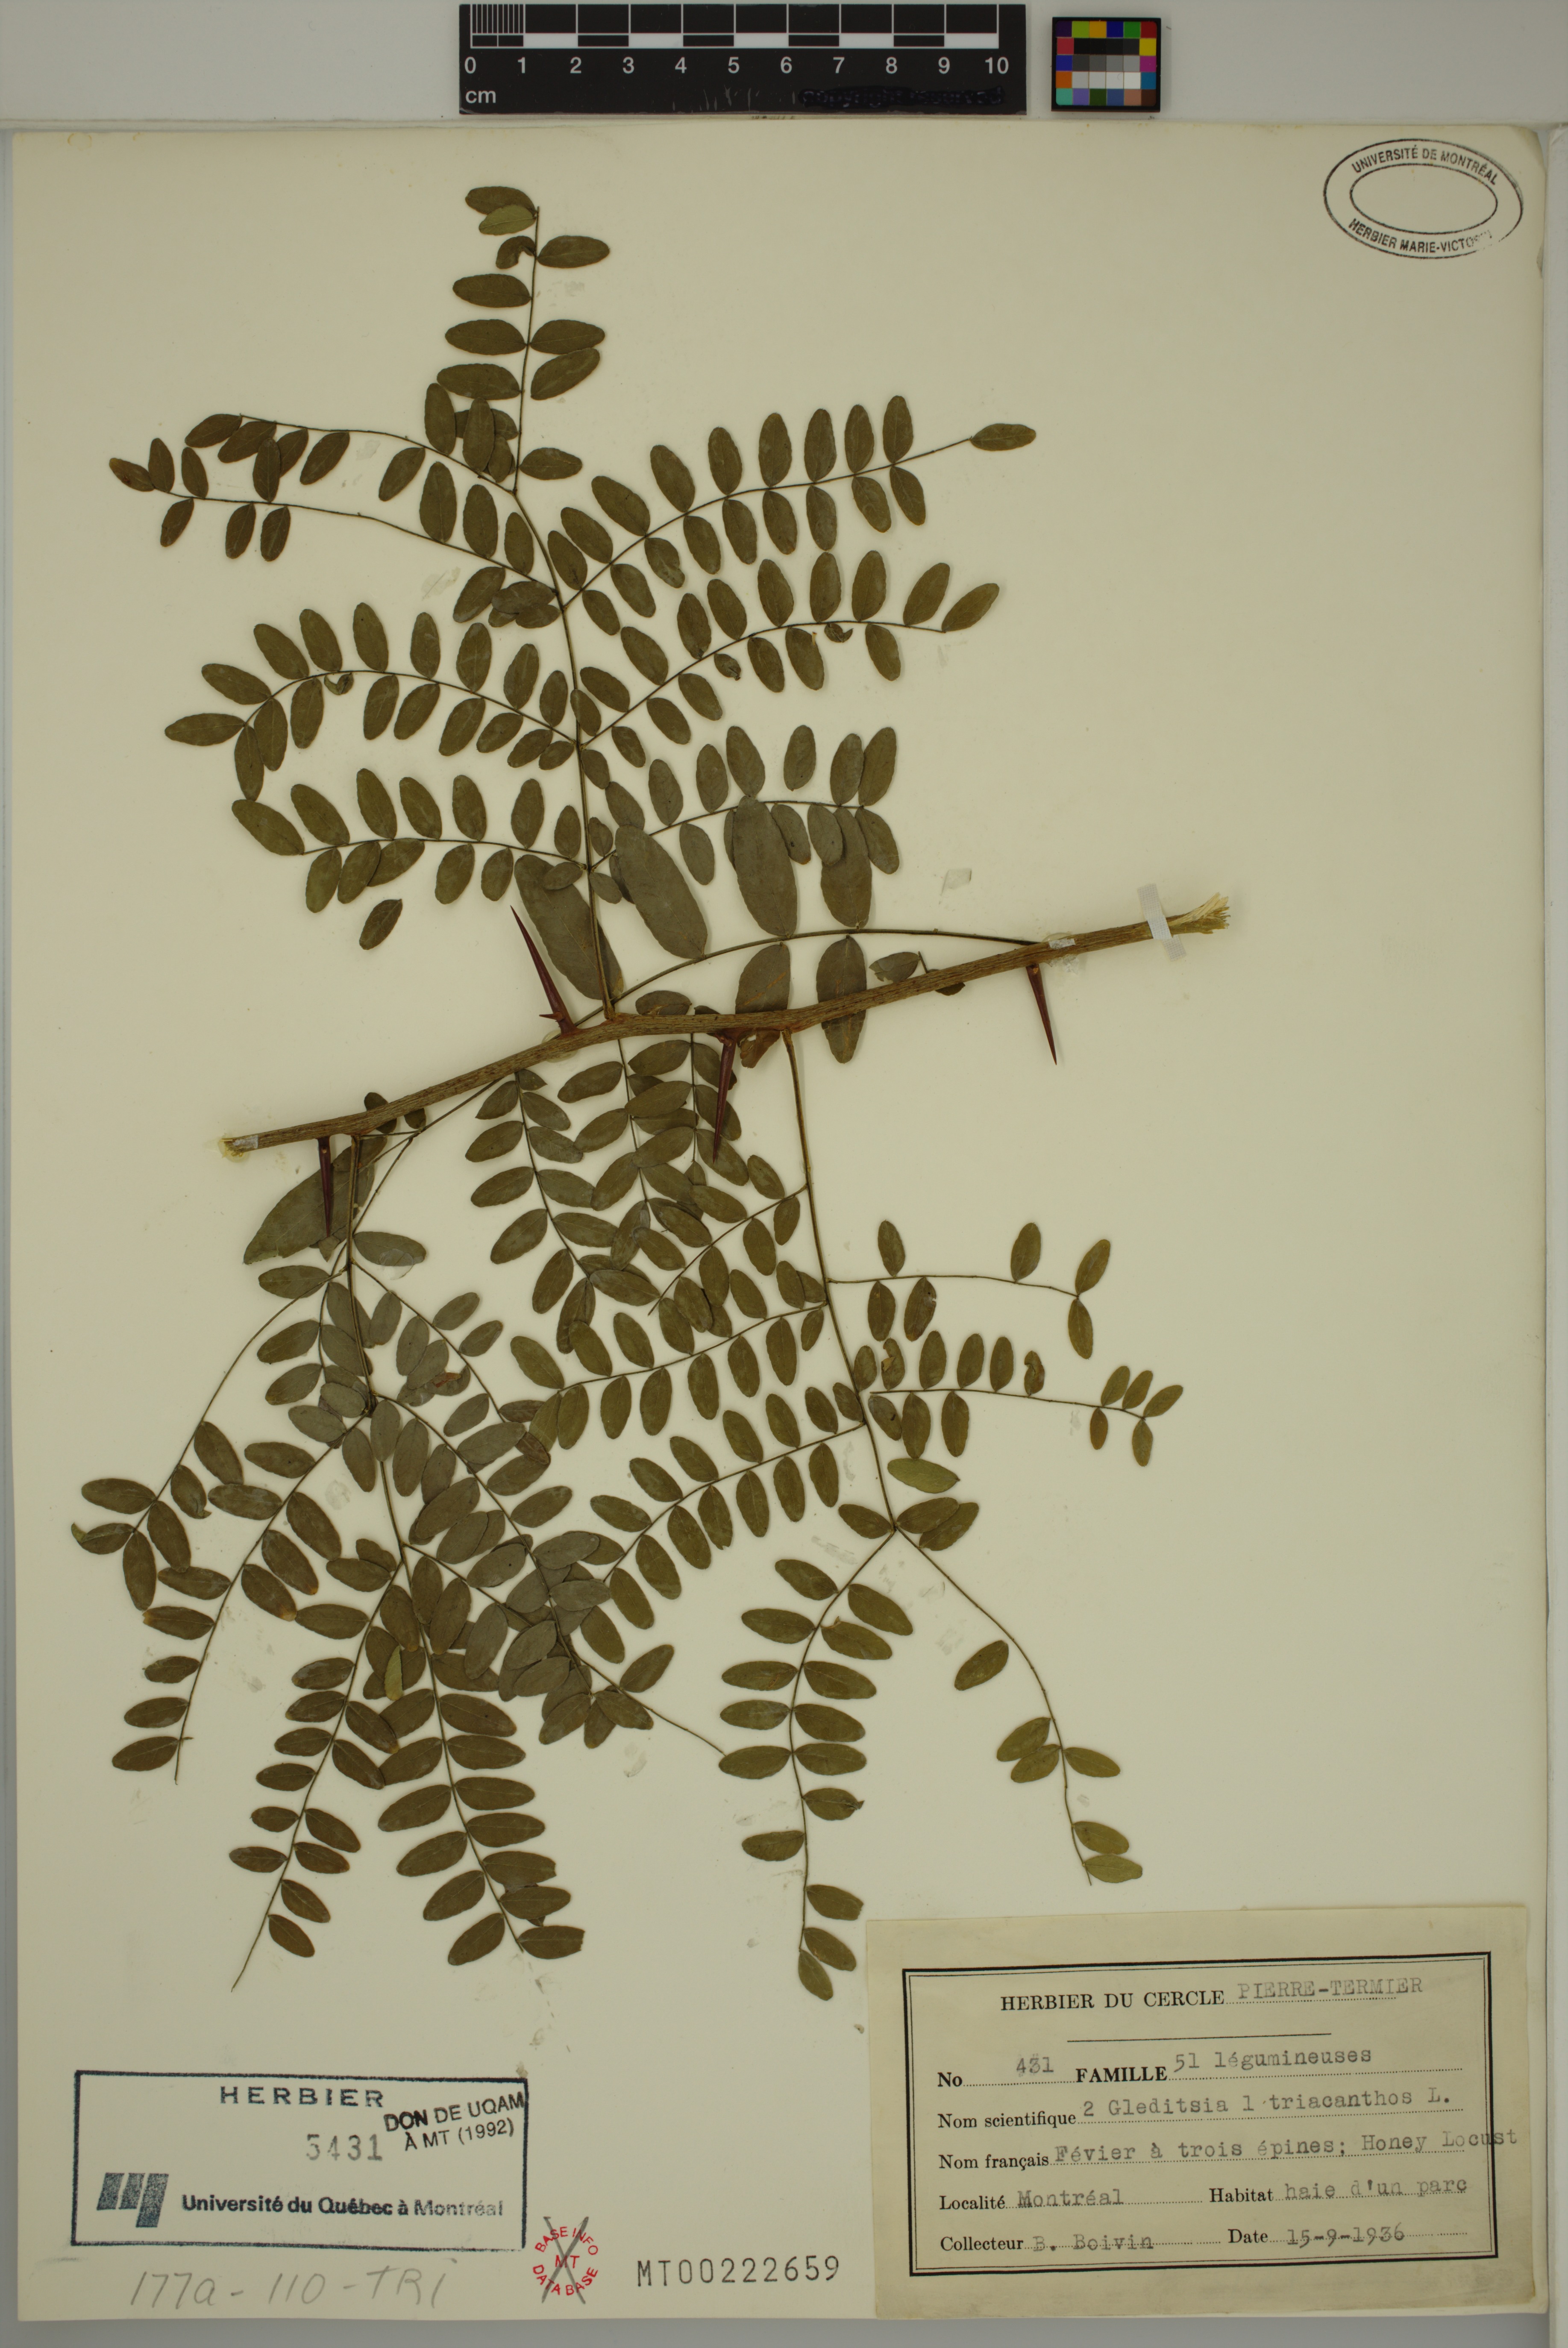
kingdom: Plantae
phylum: Tracheophyta
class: Magnoliopsida
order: Fabales
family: Fabaceae
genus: Gleditsia
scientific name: Gleditsia triacanthos
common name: Common honeylocust
